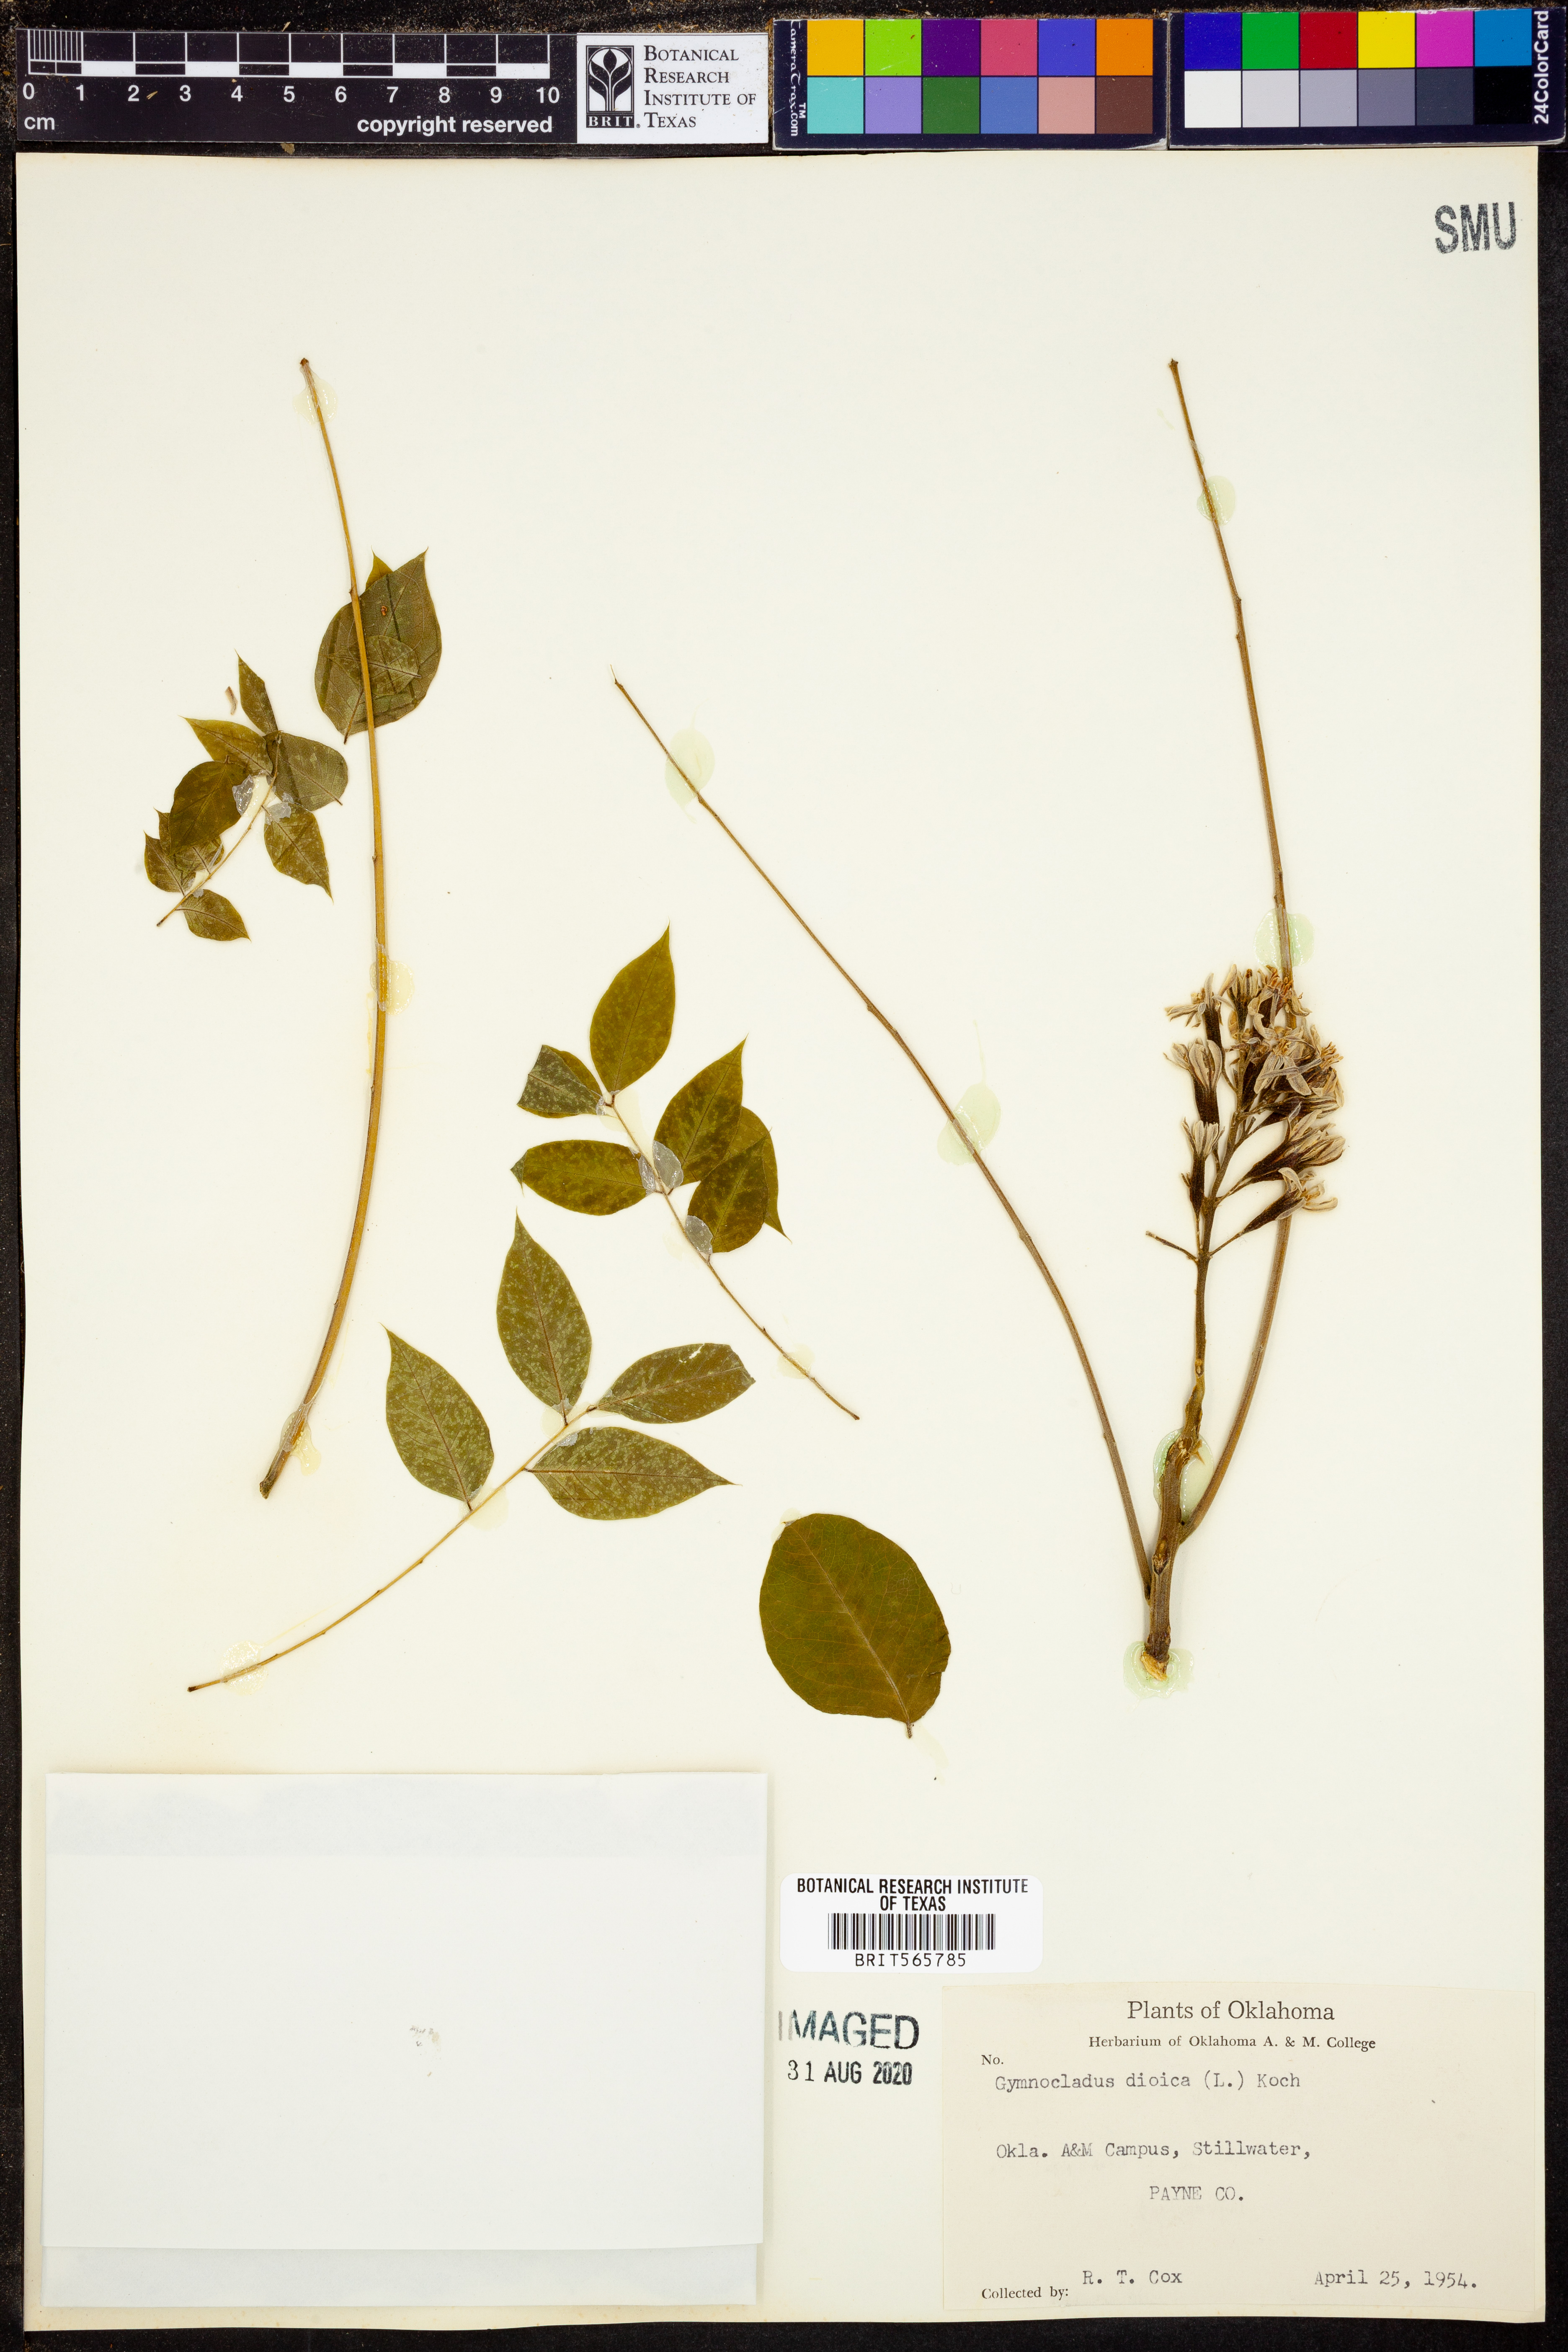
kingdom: Plantae
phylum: Tracheophyta
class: Magnoliopsida
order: Fabales
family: Fabaceae
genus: Gymnocladus
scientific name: Gymnocladus dioicus
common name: Kentucky coffee-tree
